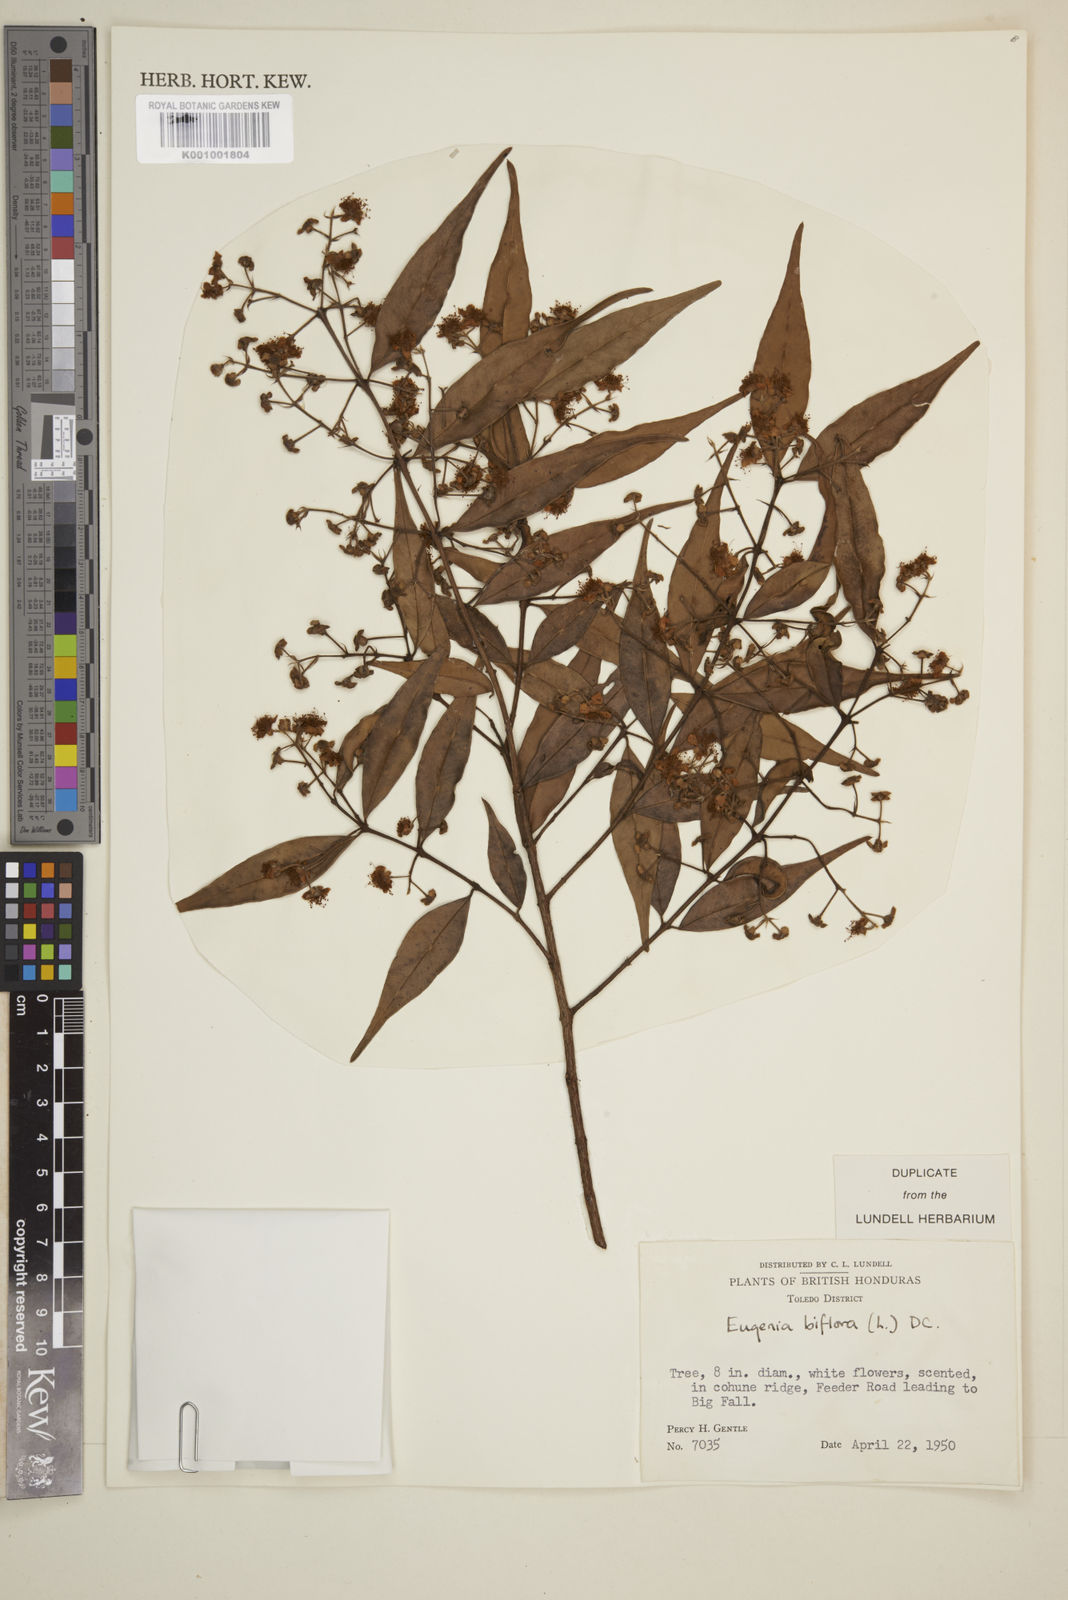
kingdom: Plantae
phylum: Tracheophyta
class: Magnoliopsida
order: Myrtales
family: Myrtaceae
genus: Eugenia
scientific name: Eugenia biflora
